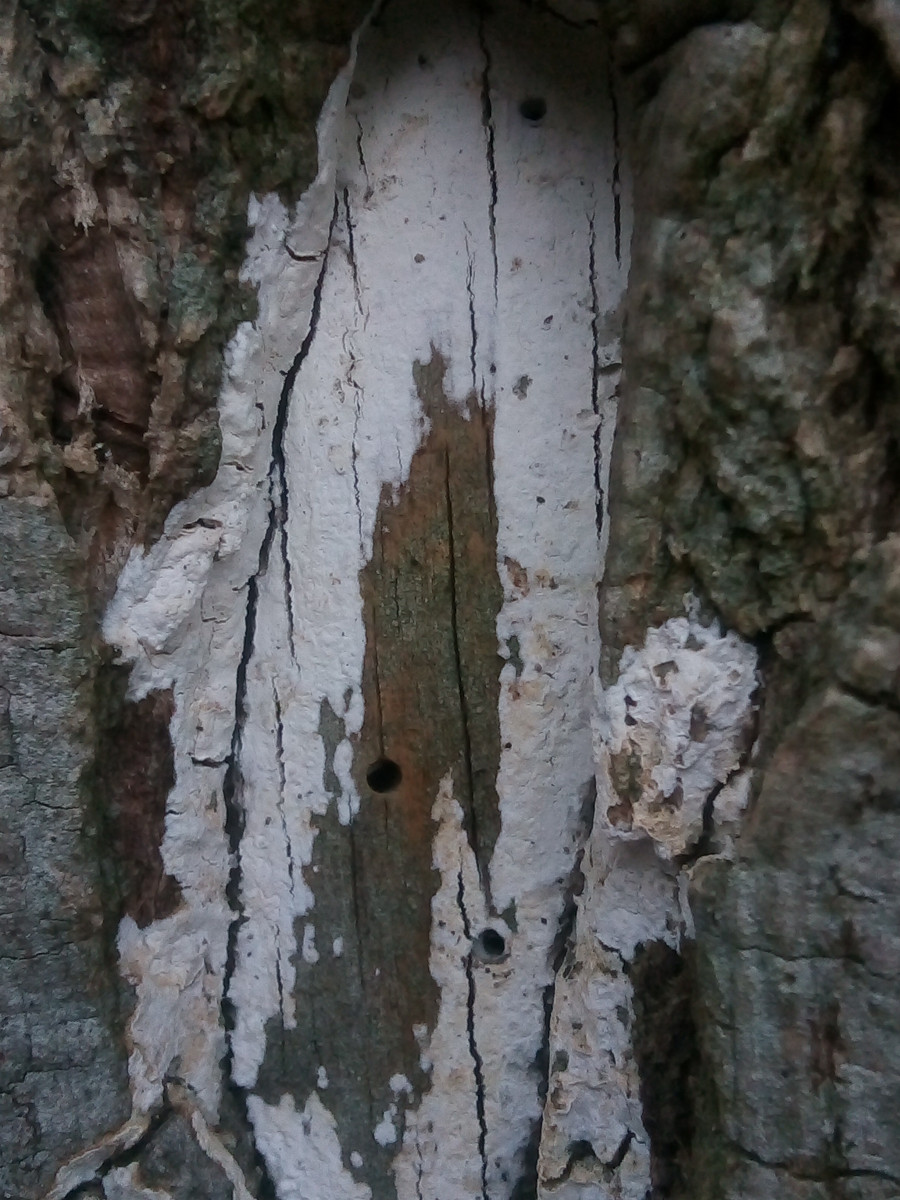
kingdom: Fungi
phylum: Basidiomycota
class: Agaricomycetes
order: Corticiales
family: Corticiaceae
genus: Lyomyces
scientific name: Lyomyces sambuci
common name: almindelig hyldehinde
